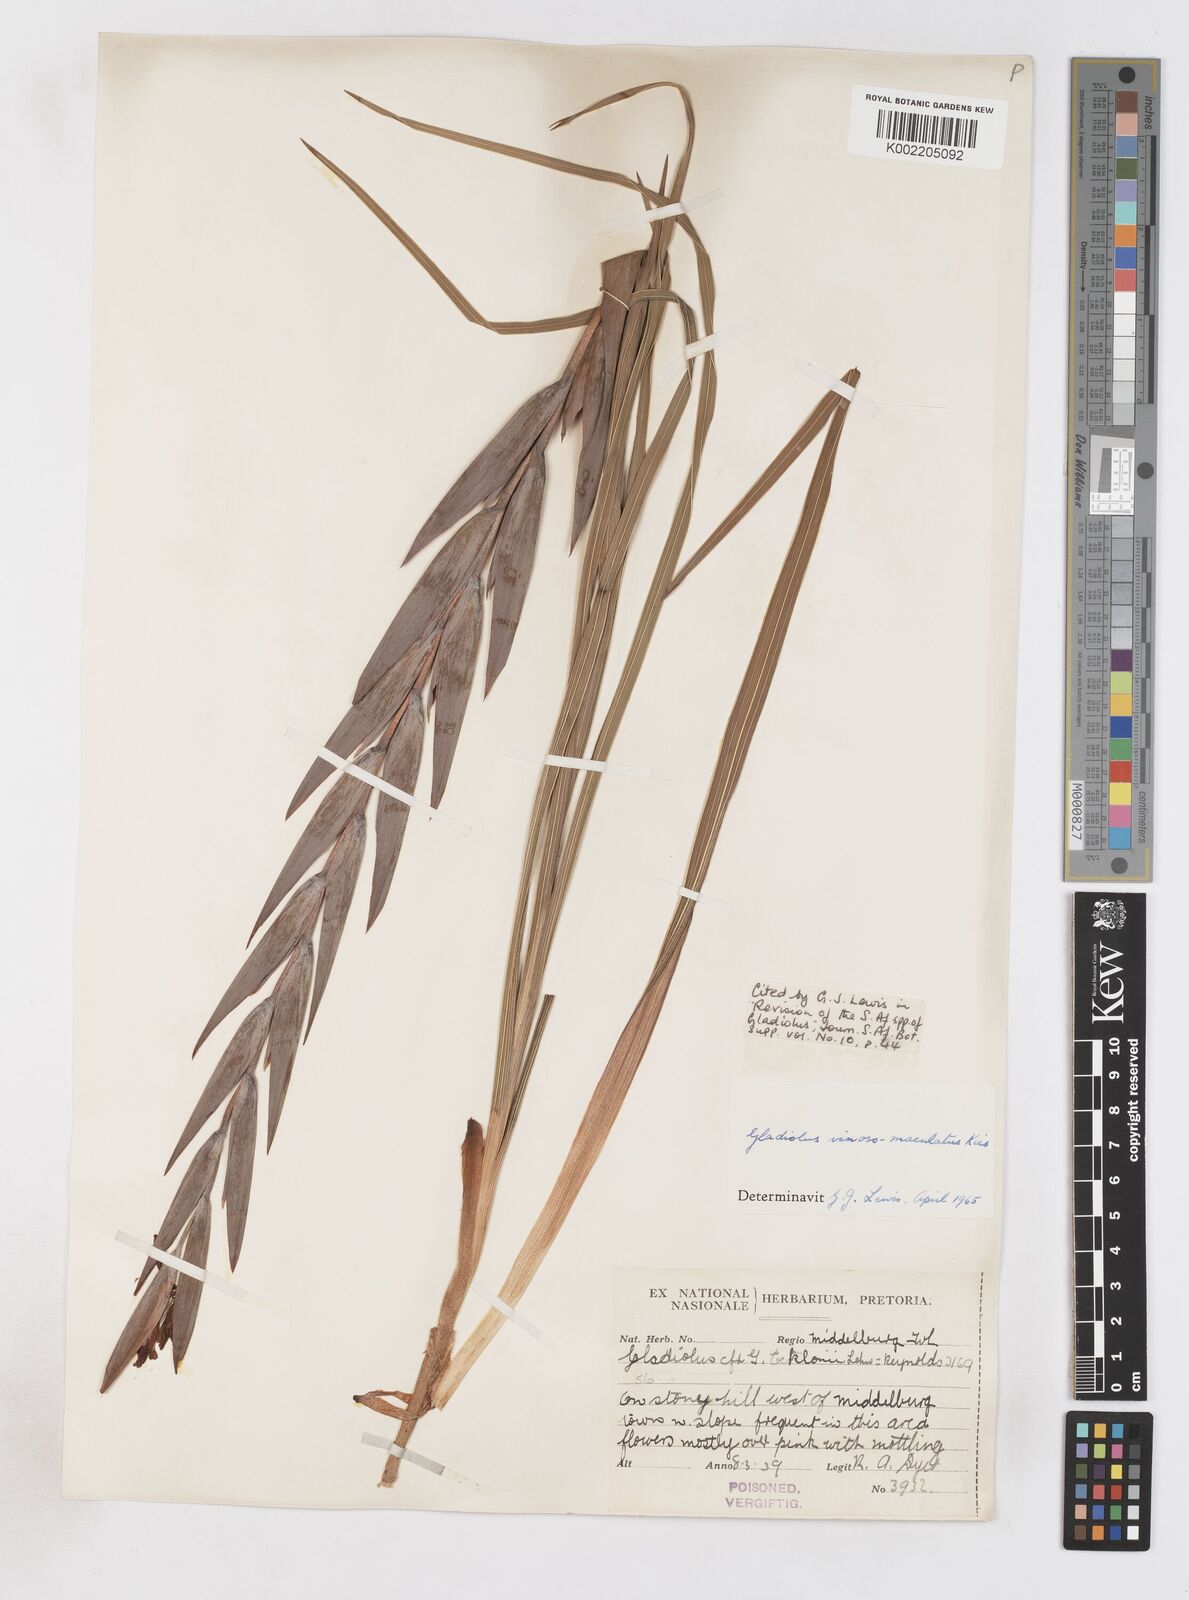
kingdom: Plantae
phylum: Tracheophyta
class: Liliopsida
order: Asparagales
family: Iridaceae
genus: Gladiolus
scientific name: Gladiolus vinosomaculatus
